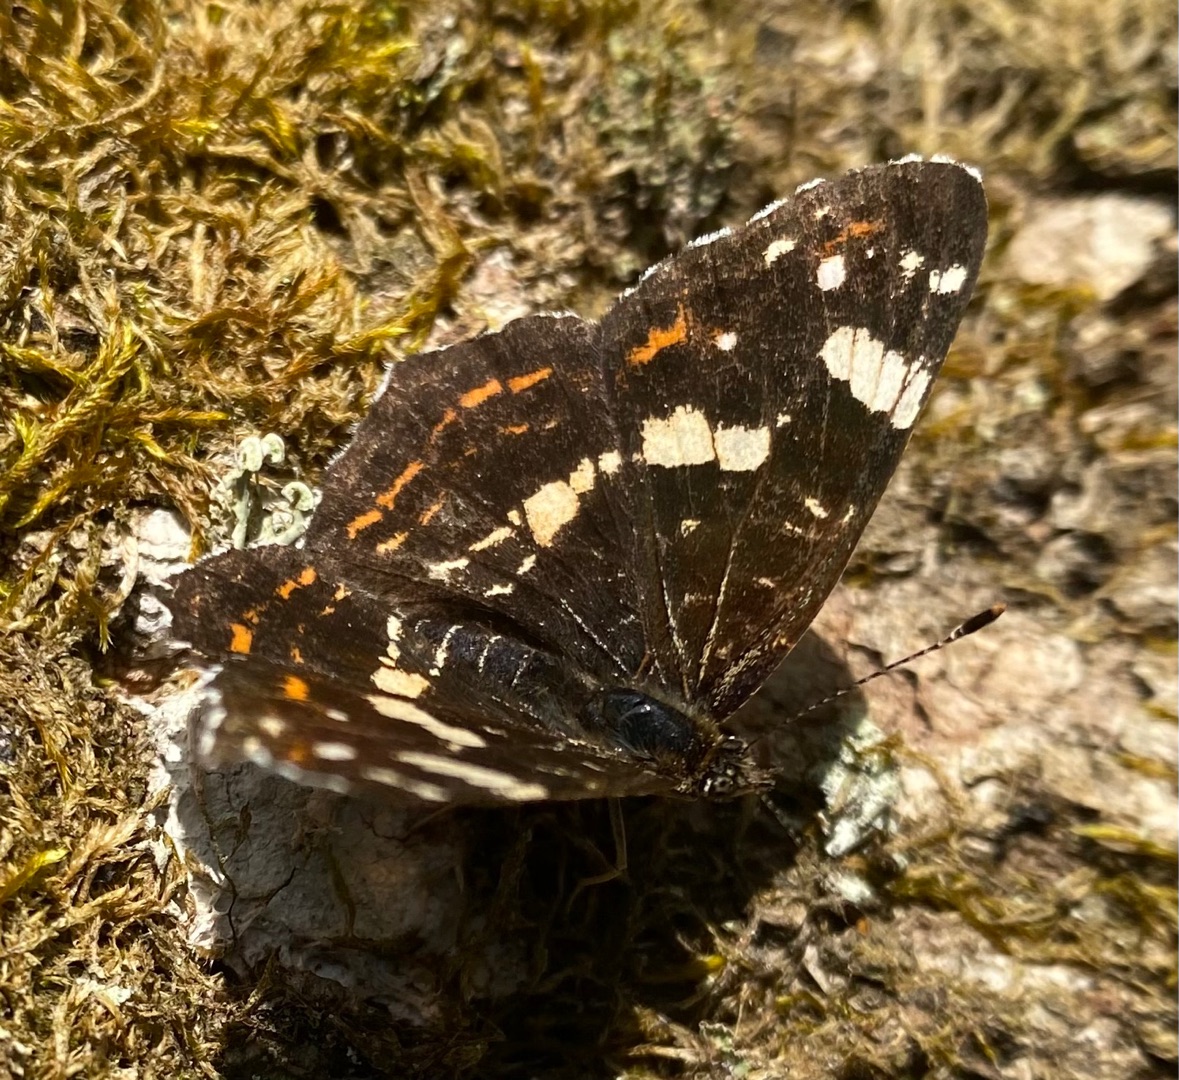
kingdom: Animalia
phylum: Arthropoda
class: Insecta
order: Lepidoptera
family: Nymphalidae
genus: Araschnia
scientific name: Araschnia levana
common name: Nældesommerfugl
